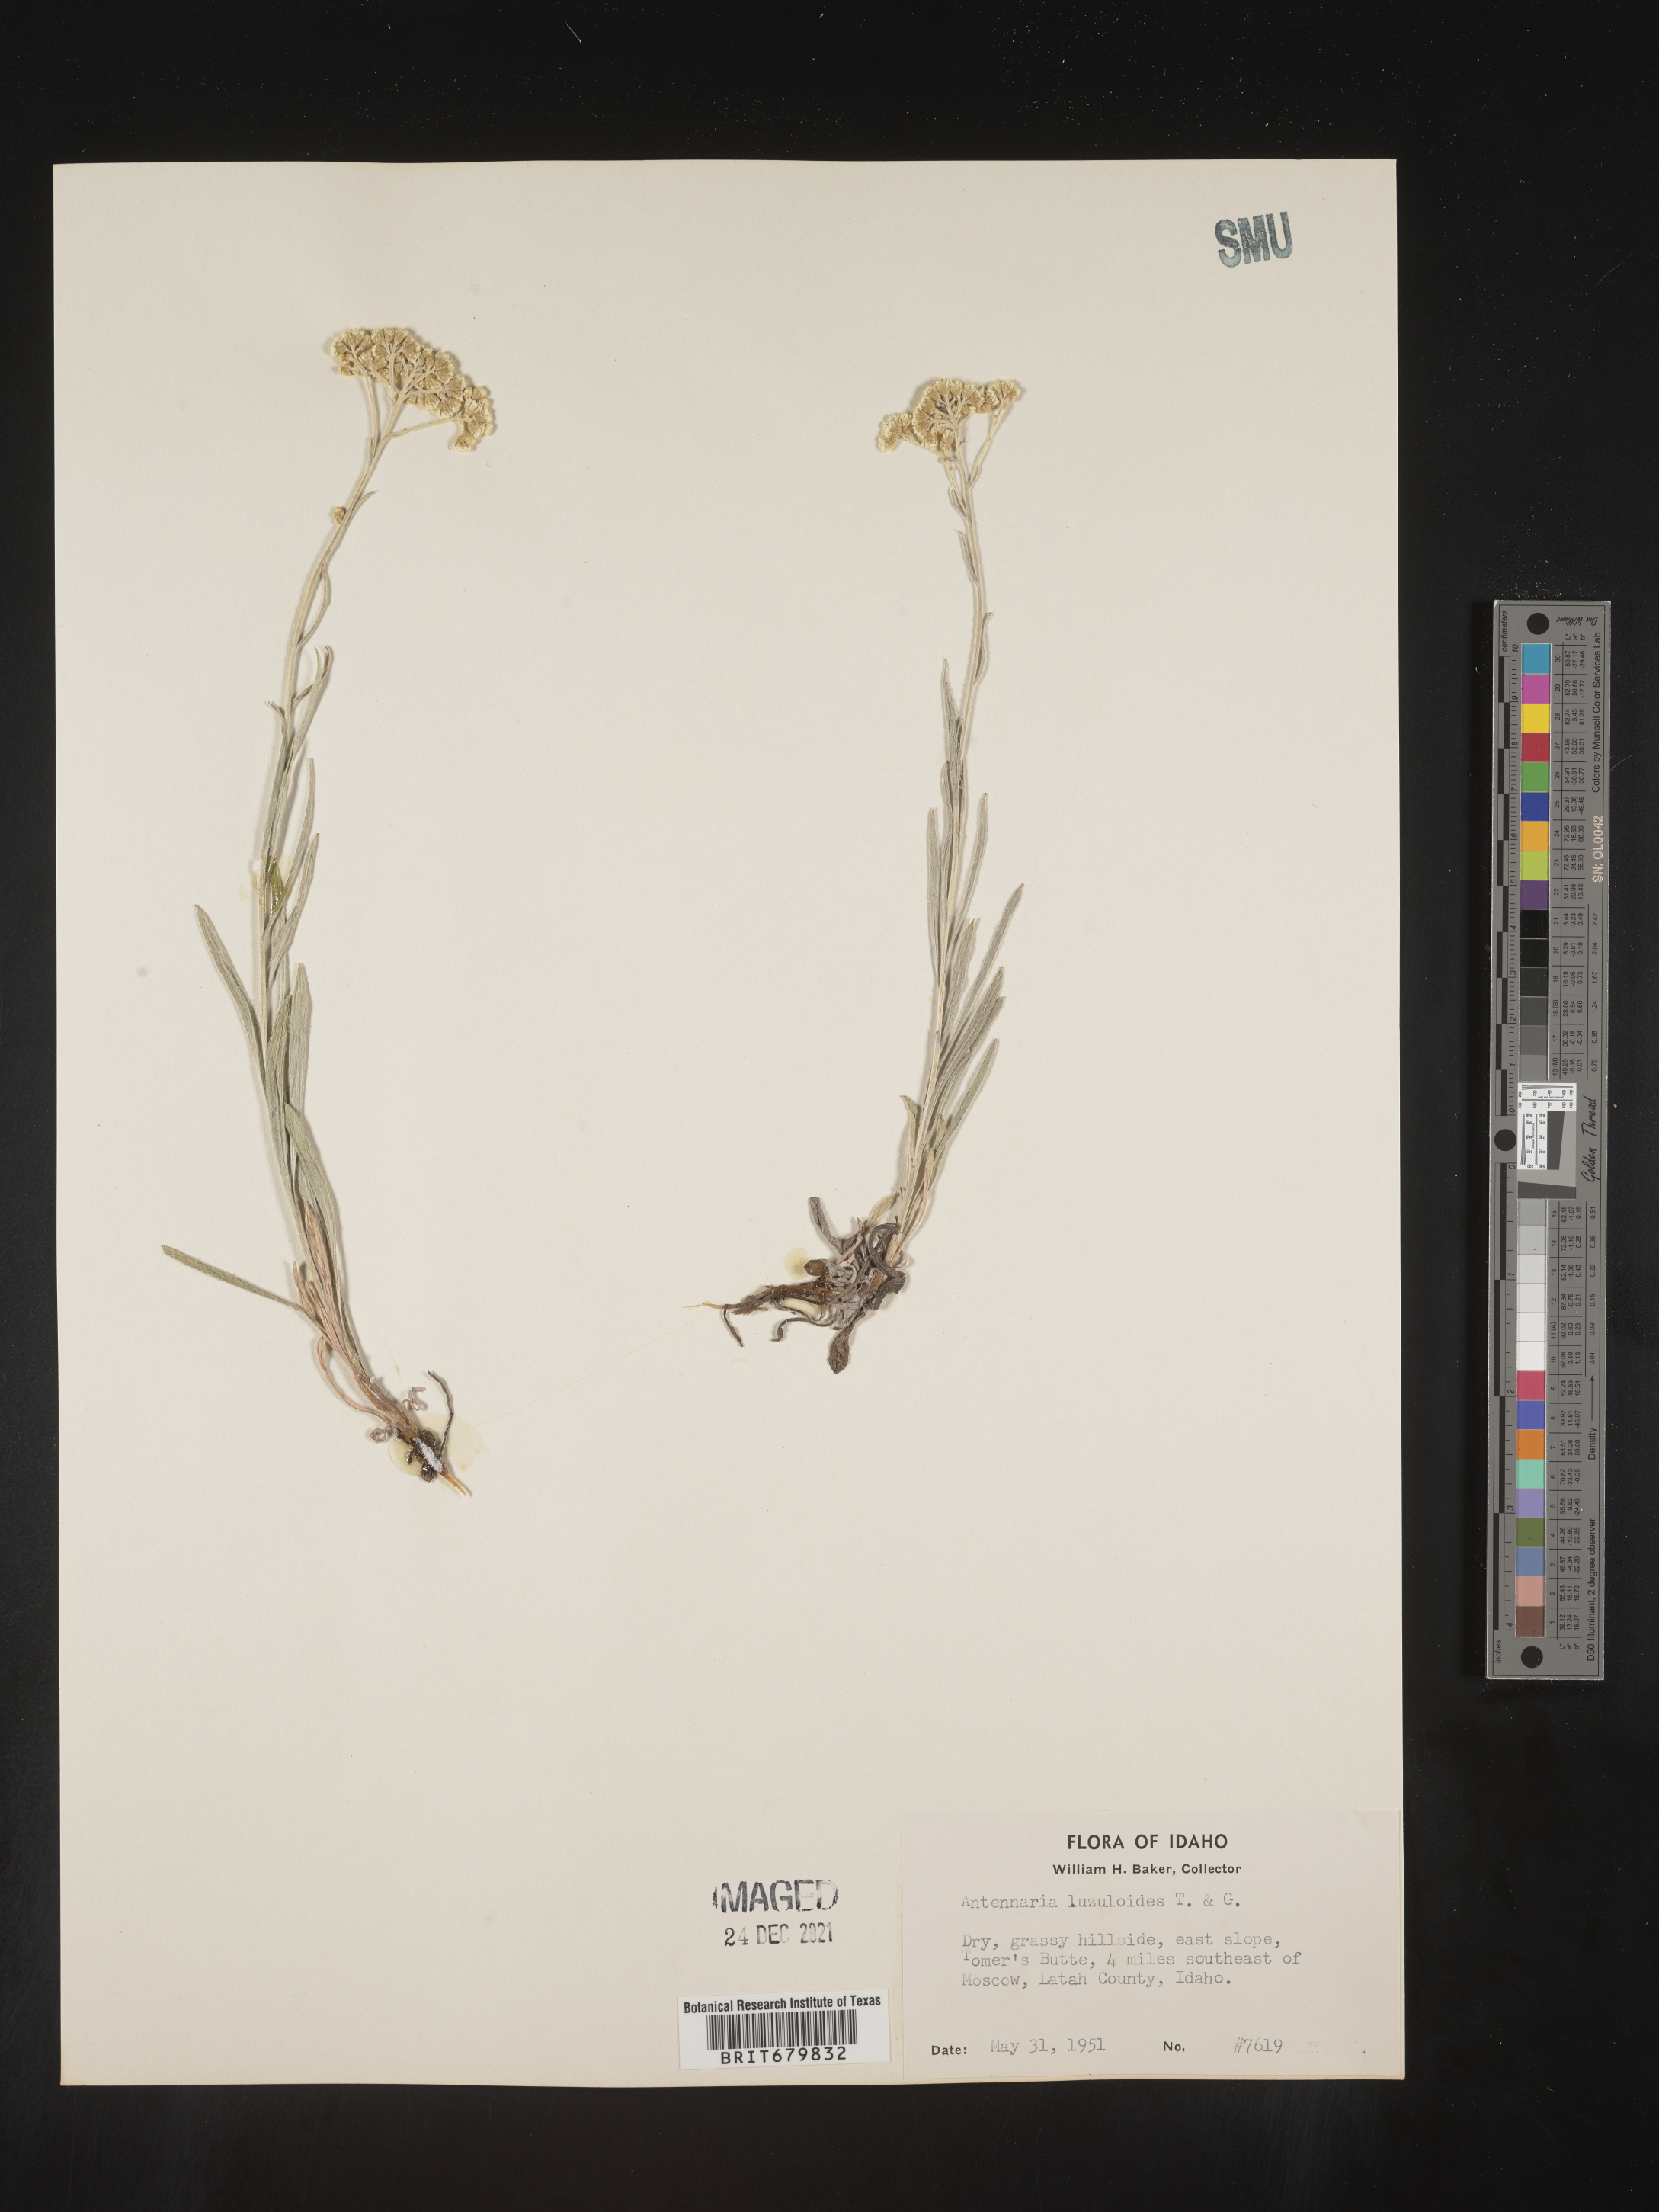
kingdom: Plantae
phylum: Tracheophyta
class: Magnoliopsida
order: Asterales
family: Asteraceae
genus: Antennaria
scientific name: Antennaria luzuloides
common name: Rush pussytoes
